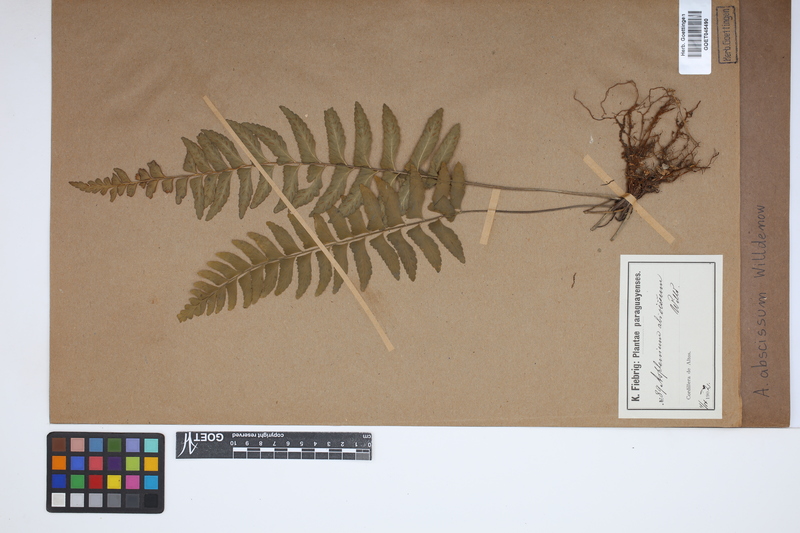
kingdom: Plantae
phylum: Tracheophyta
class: Polypodiopsida
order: Polypodiales
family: Aspleniaceae
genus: Asplenium
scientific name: Asplenium abscissum
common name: Cutleaf spleenwort
